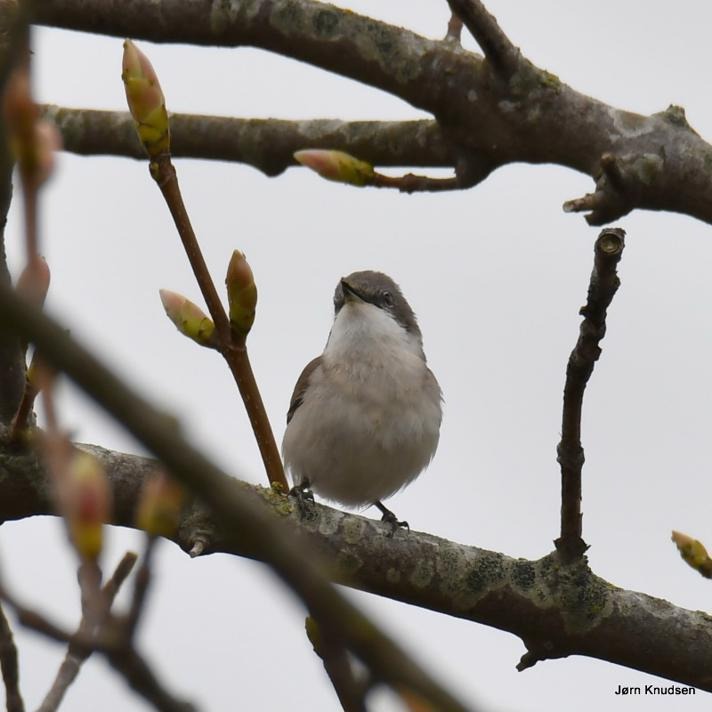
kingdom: Animalia
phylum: Chordata
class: Aves
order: Passeriformes
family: Sylviidae
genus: Sylvia
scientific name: Sylvia curruca
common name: Gærdesanger
